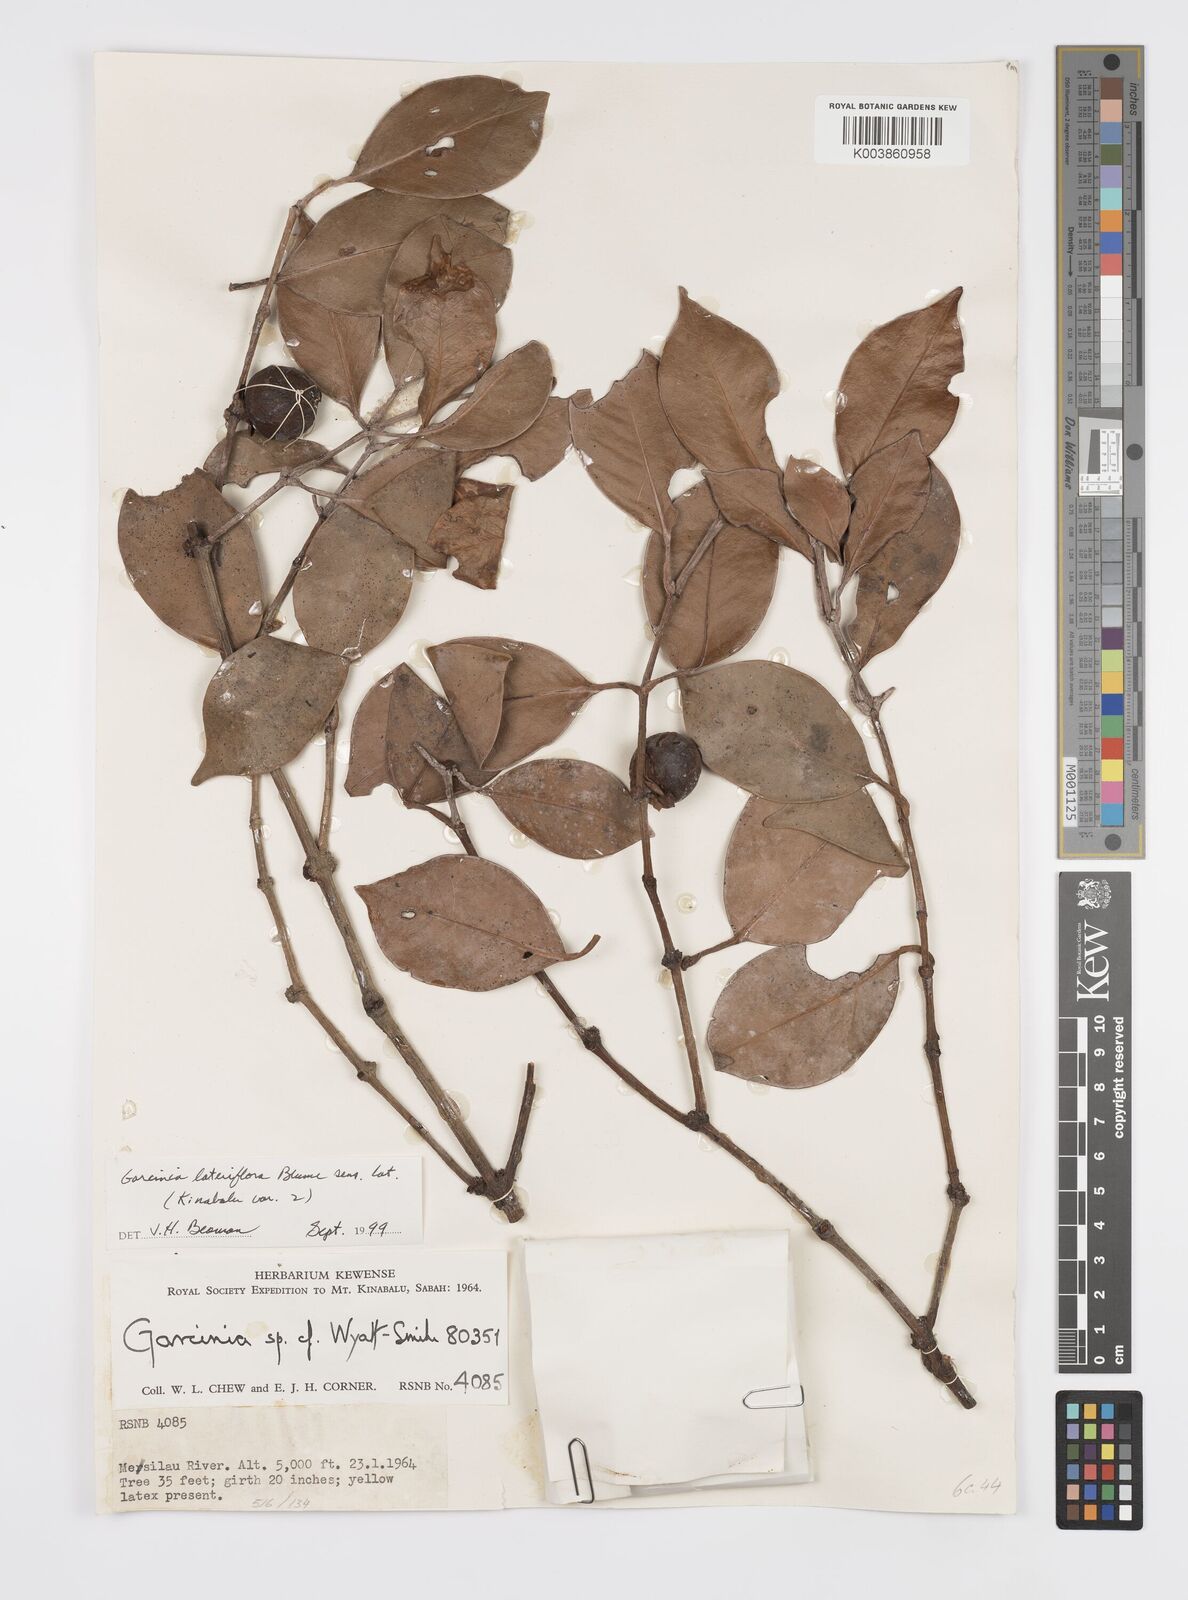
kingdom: Plantae
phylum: Tracheophyta
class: Magnoliopsida
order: Malpighiales
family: Clusiaceae
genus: Garcinia
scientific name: Garcinia lateriflora
